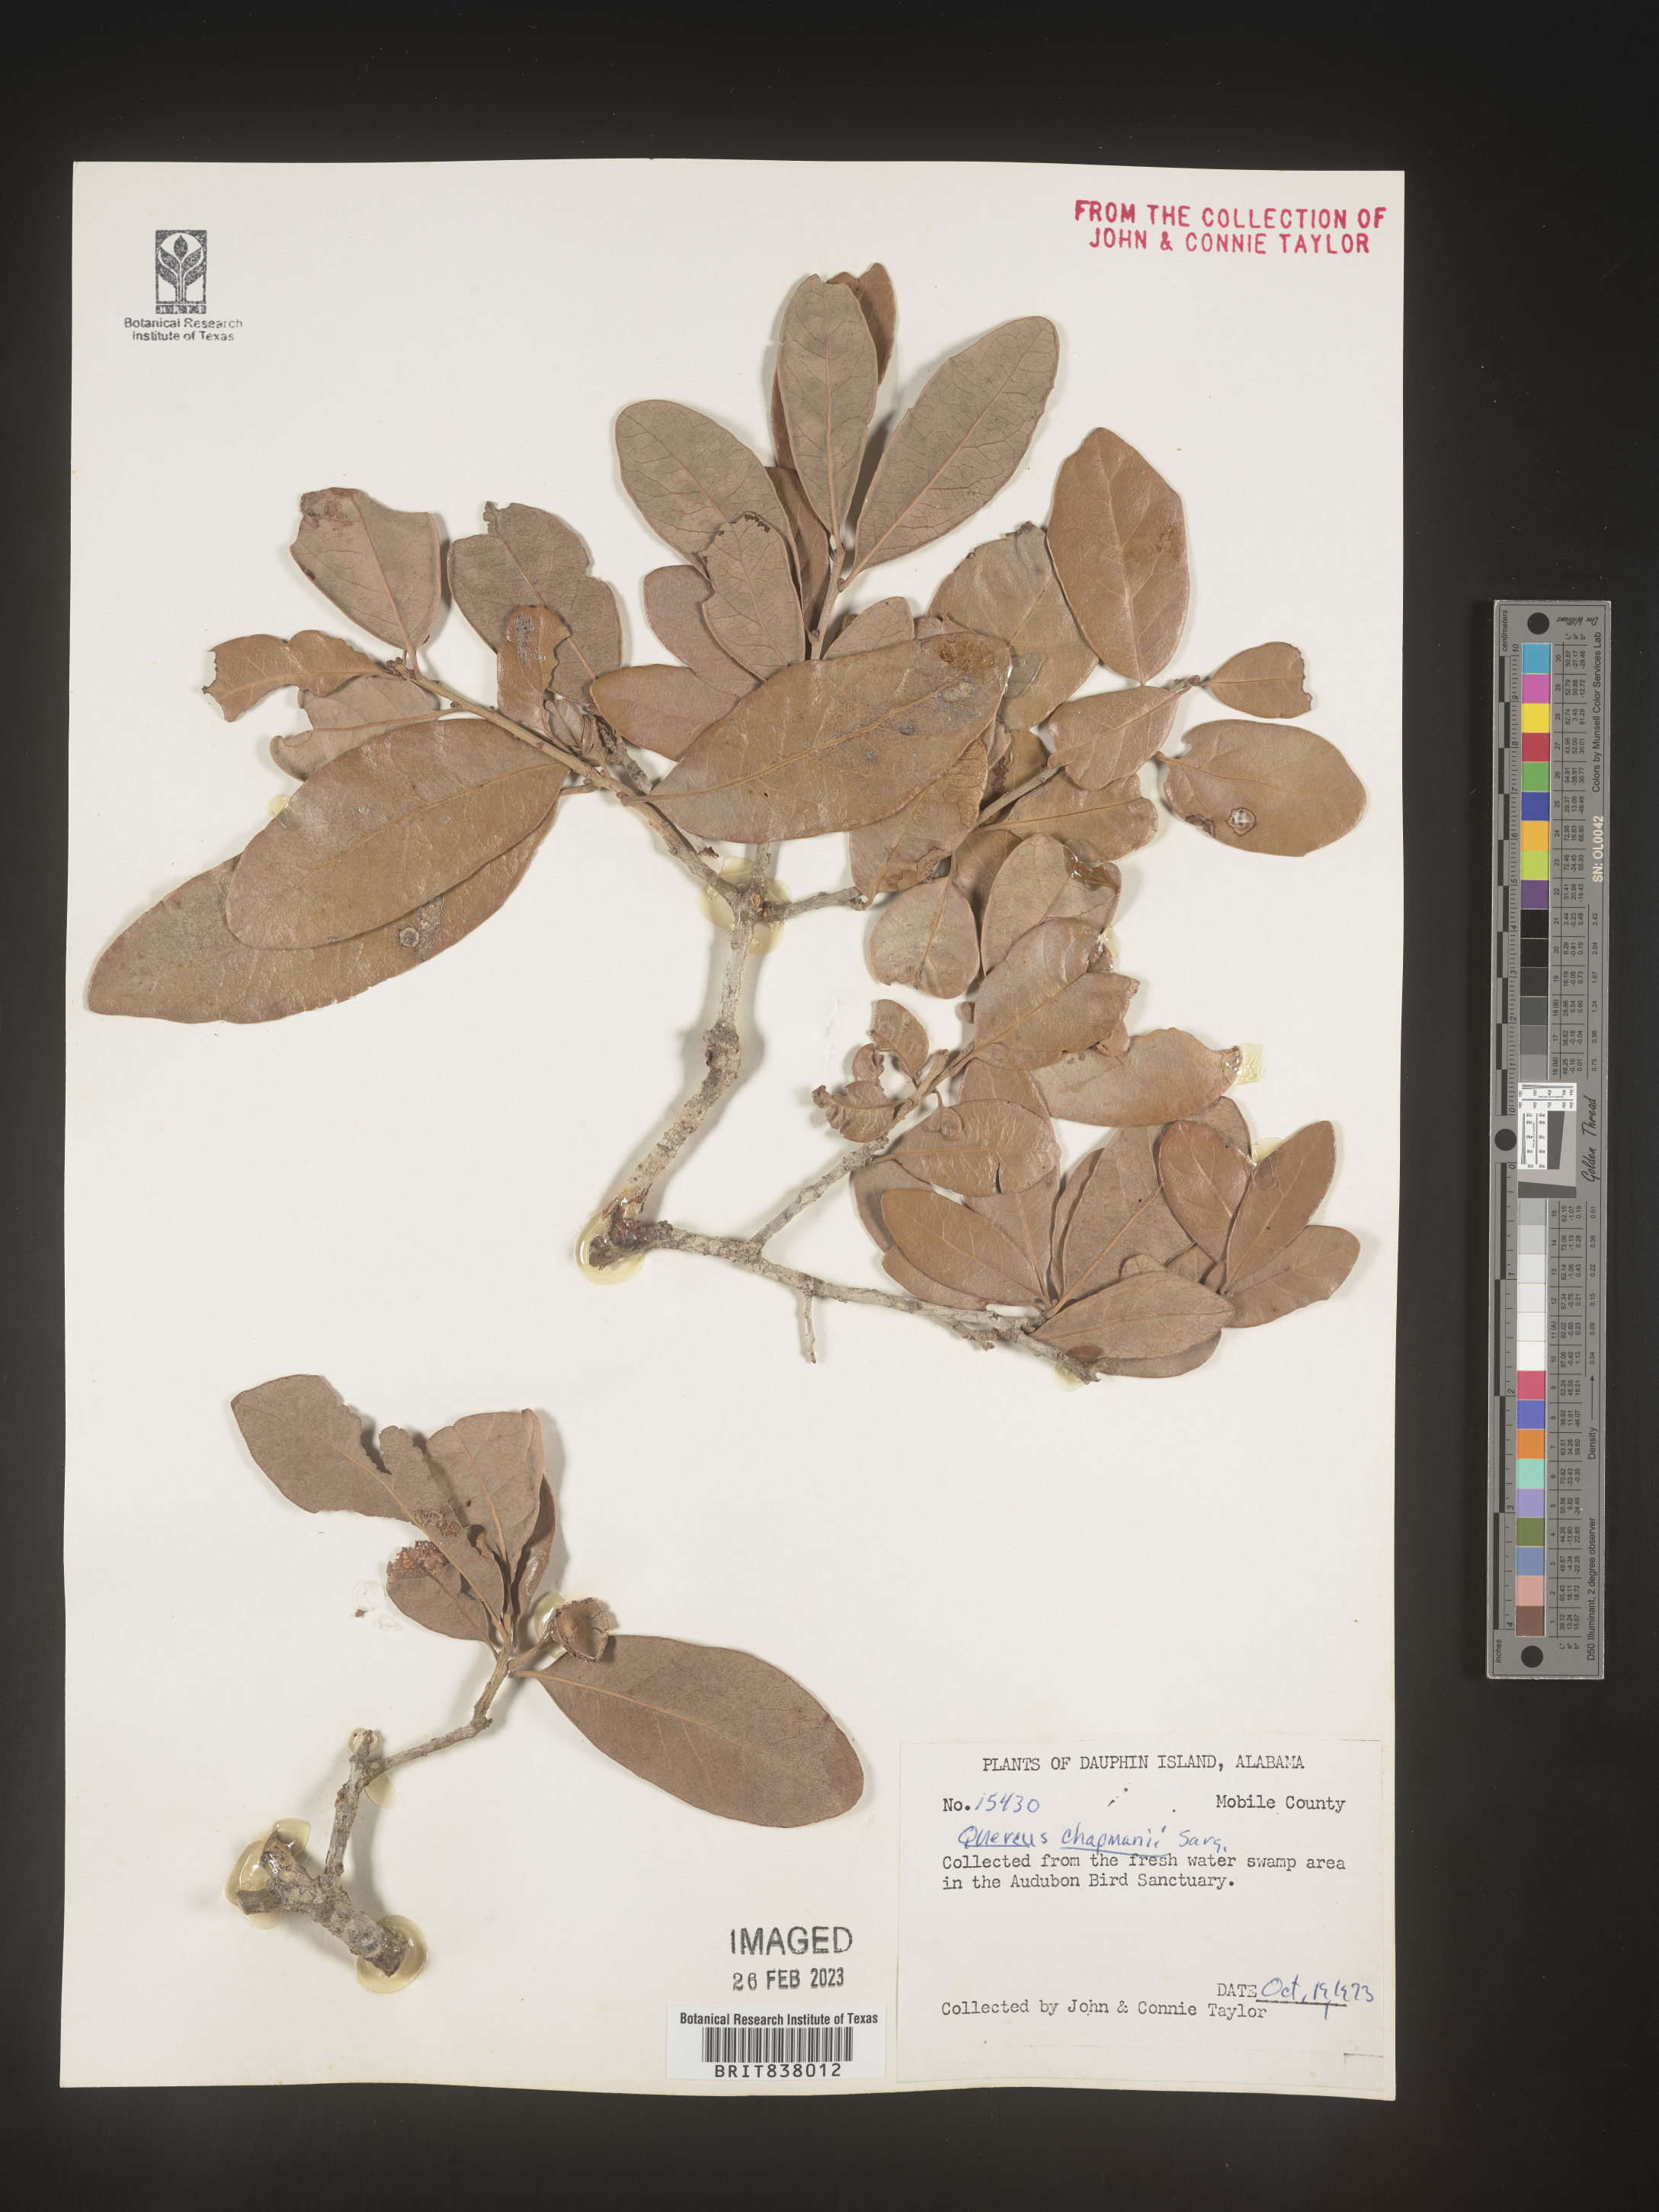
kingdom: Plantae
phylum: Tracheophyta
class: Magnoliopsida
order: Fagales
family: Fagaceae
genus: Quercus
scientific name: Quercus
